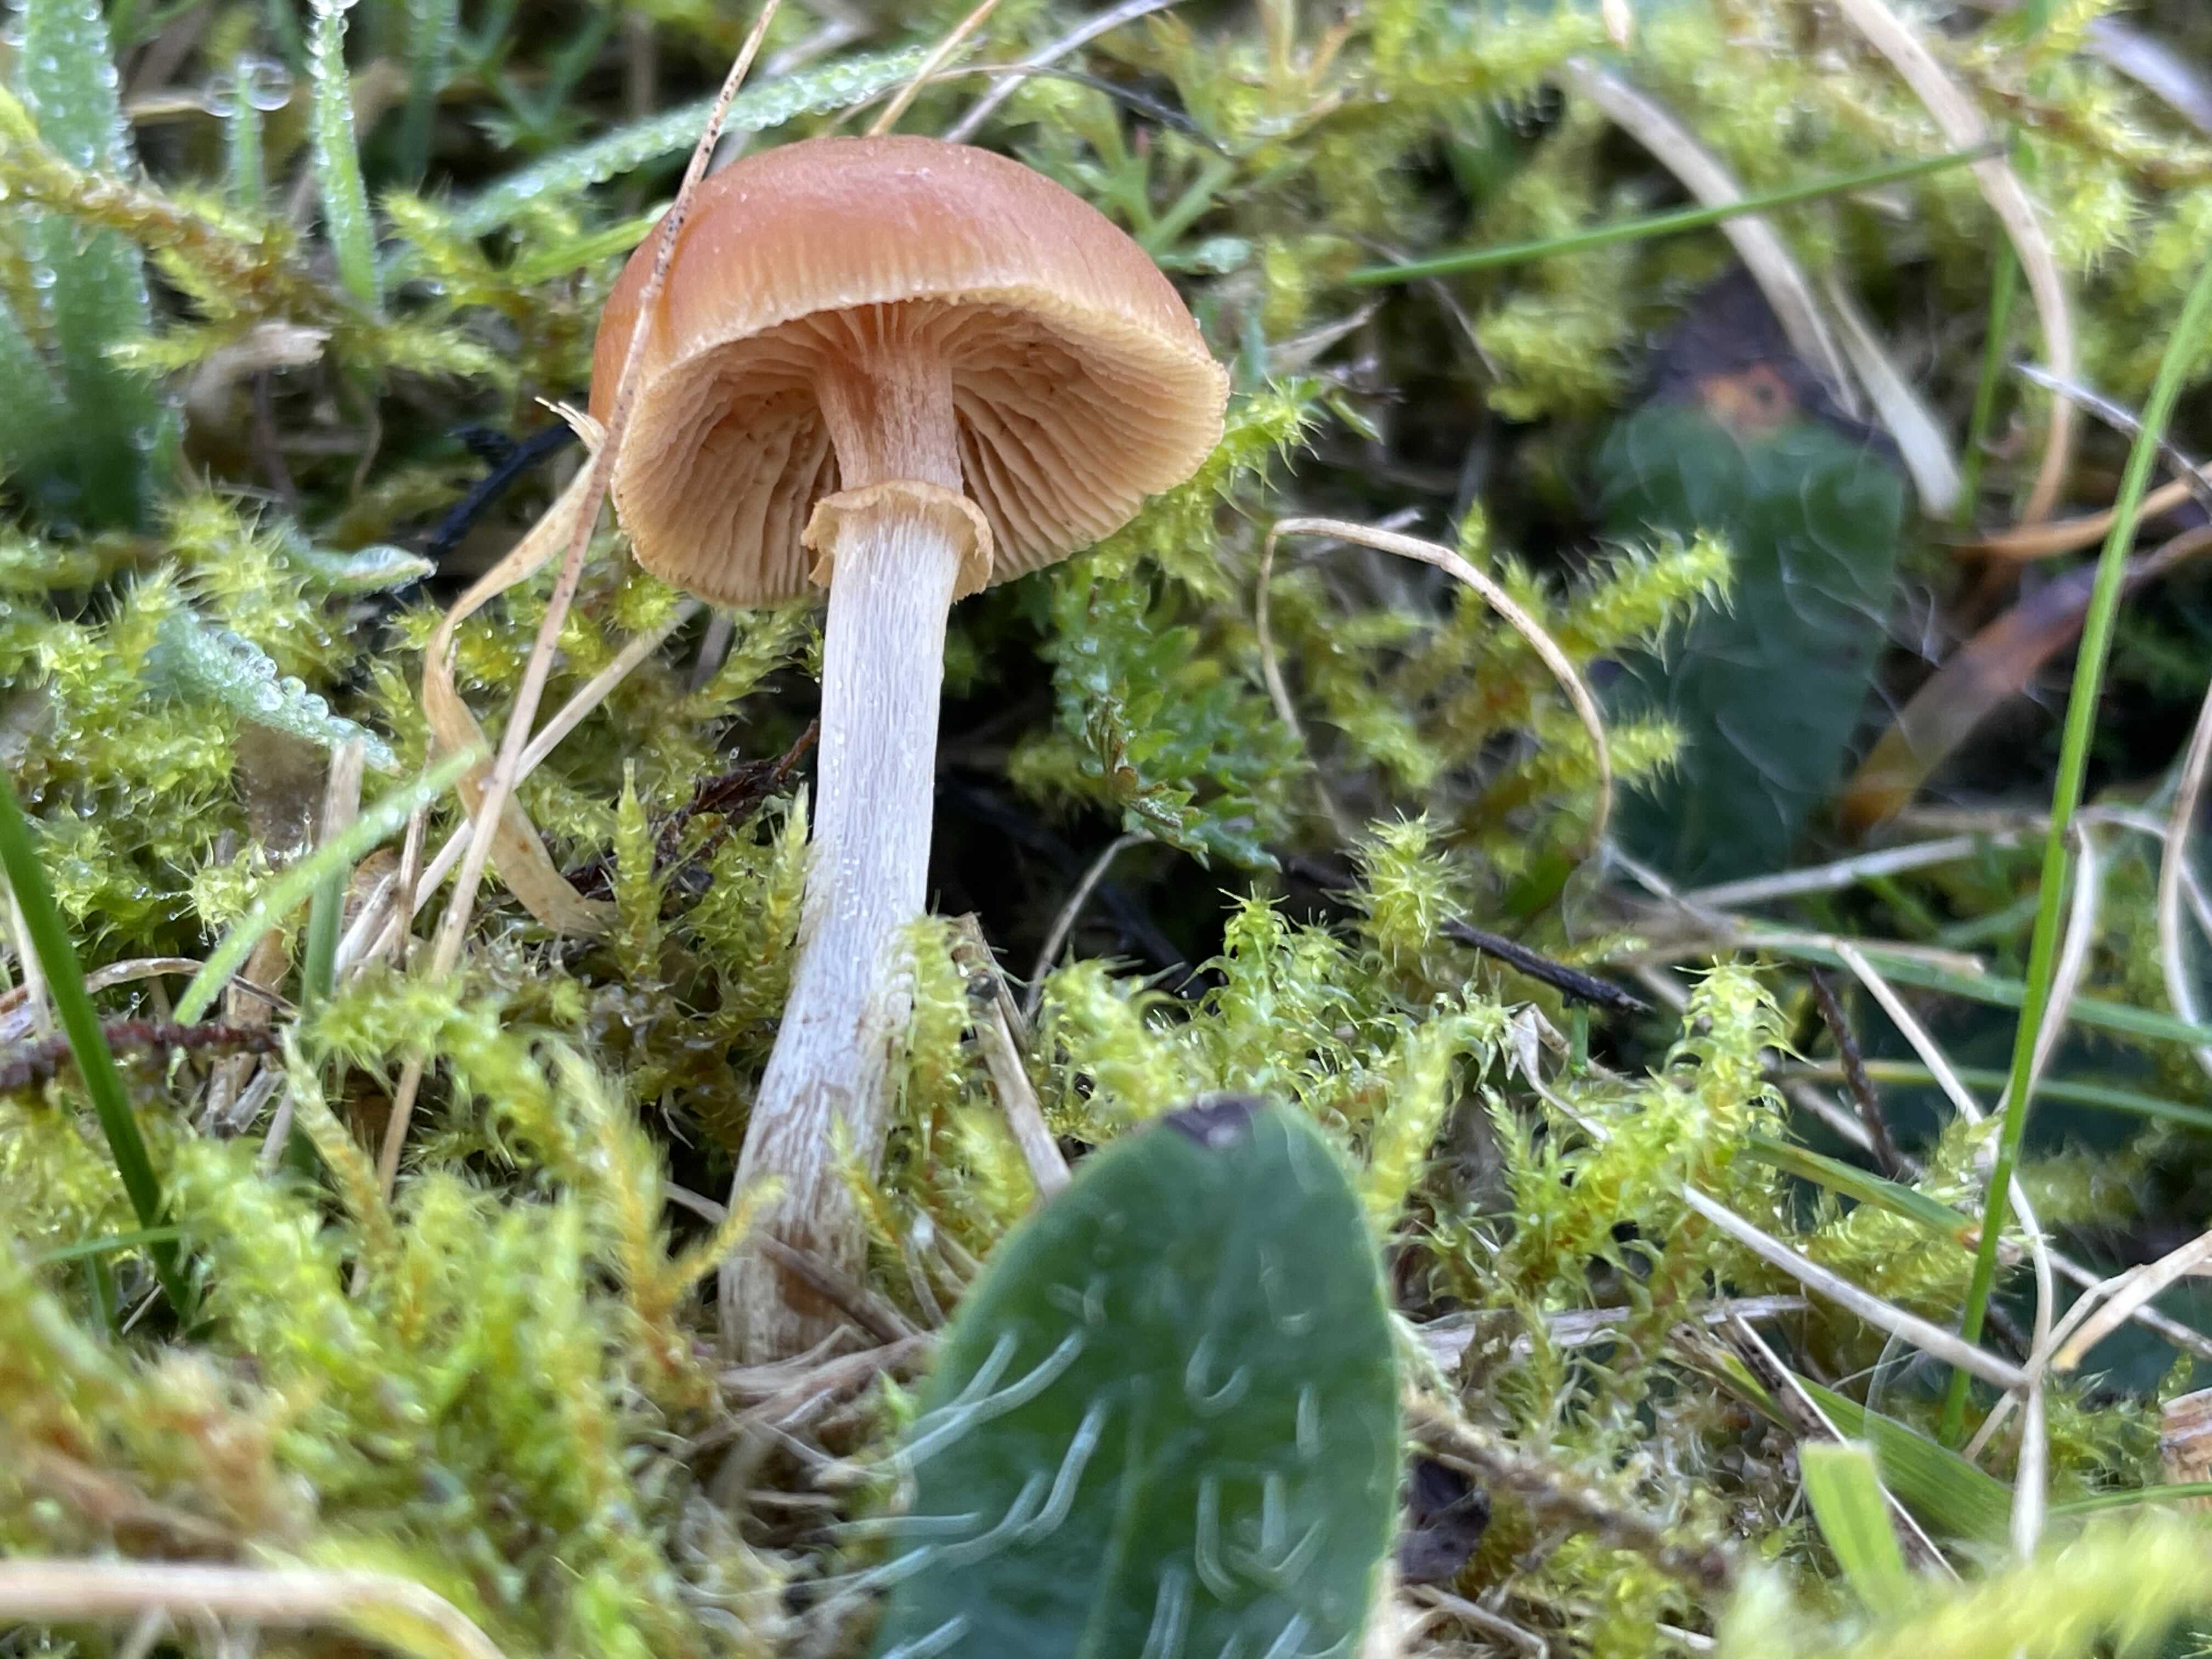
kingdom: Fungi
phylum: Basidiomycota
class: Agaricomycetes
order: Agaricales
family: Hymenogastraceae
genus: Galerina
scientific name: Galerina
